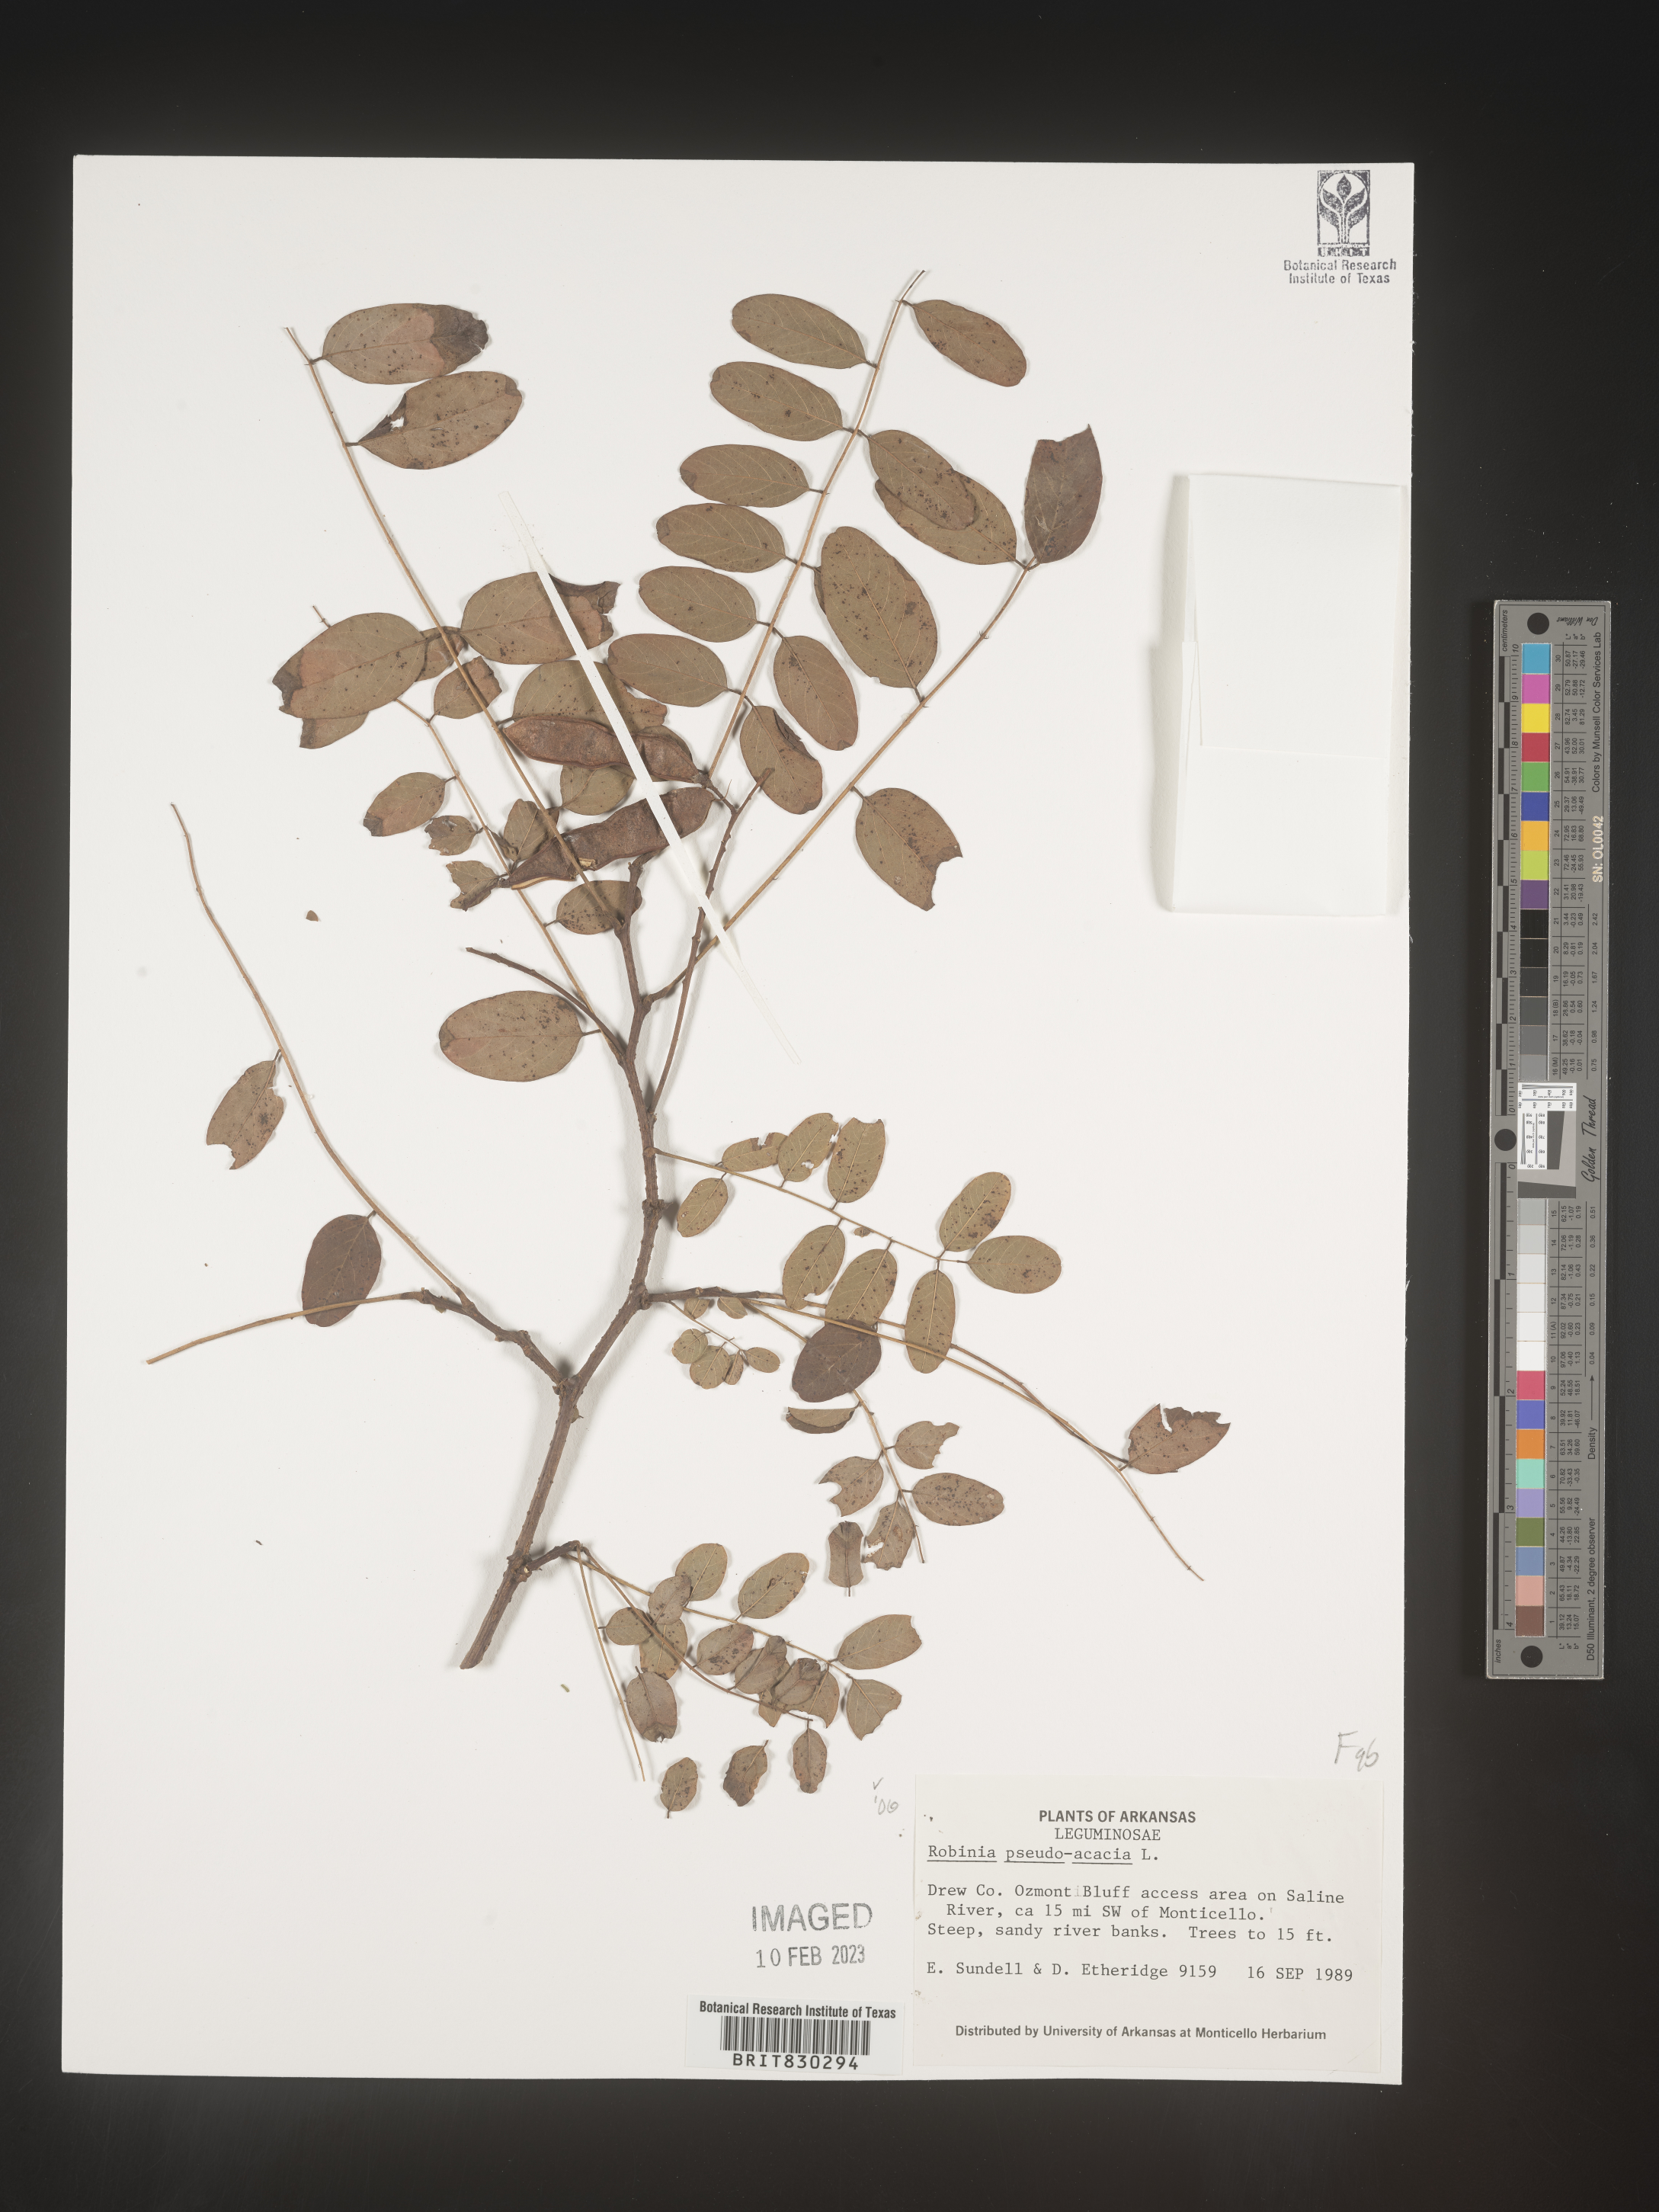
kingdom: Plantae
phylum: Tracheophyta
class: Magnoliopsida
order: Fabales
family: Fabaceae
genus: Robinia
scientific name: Robinia pseudoacacia
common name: Black locust
